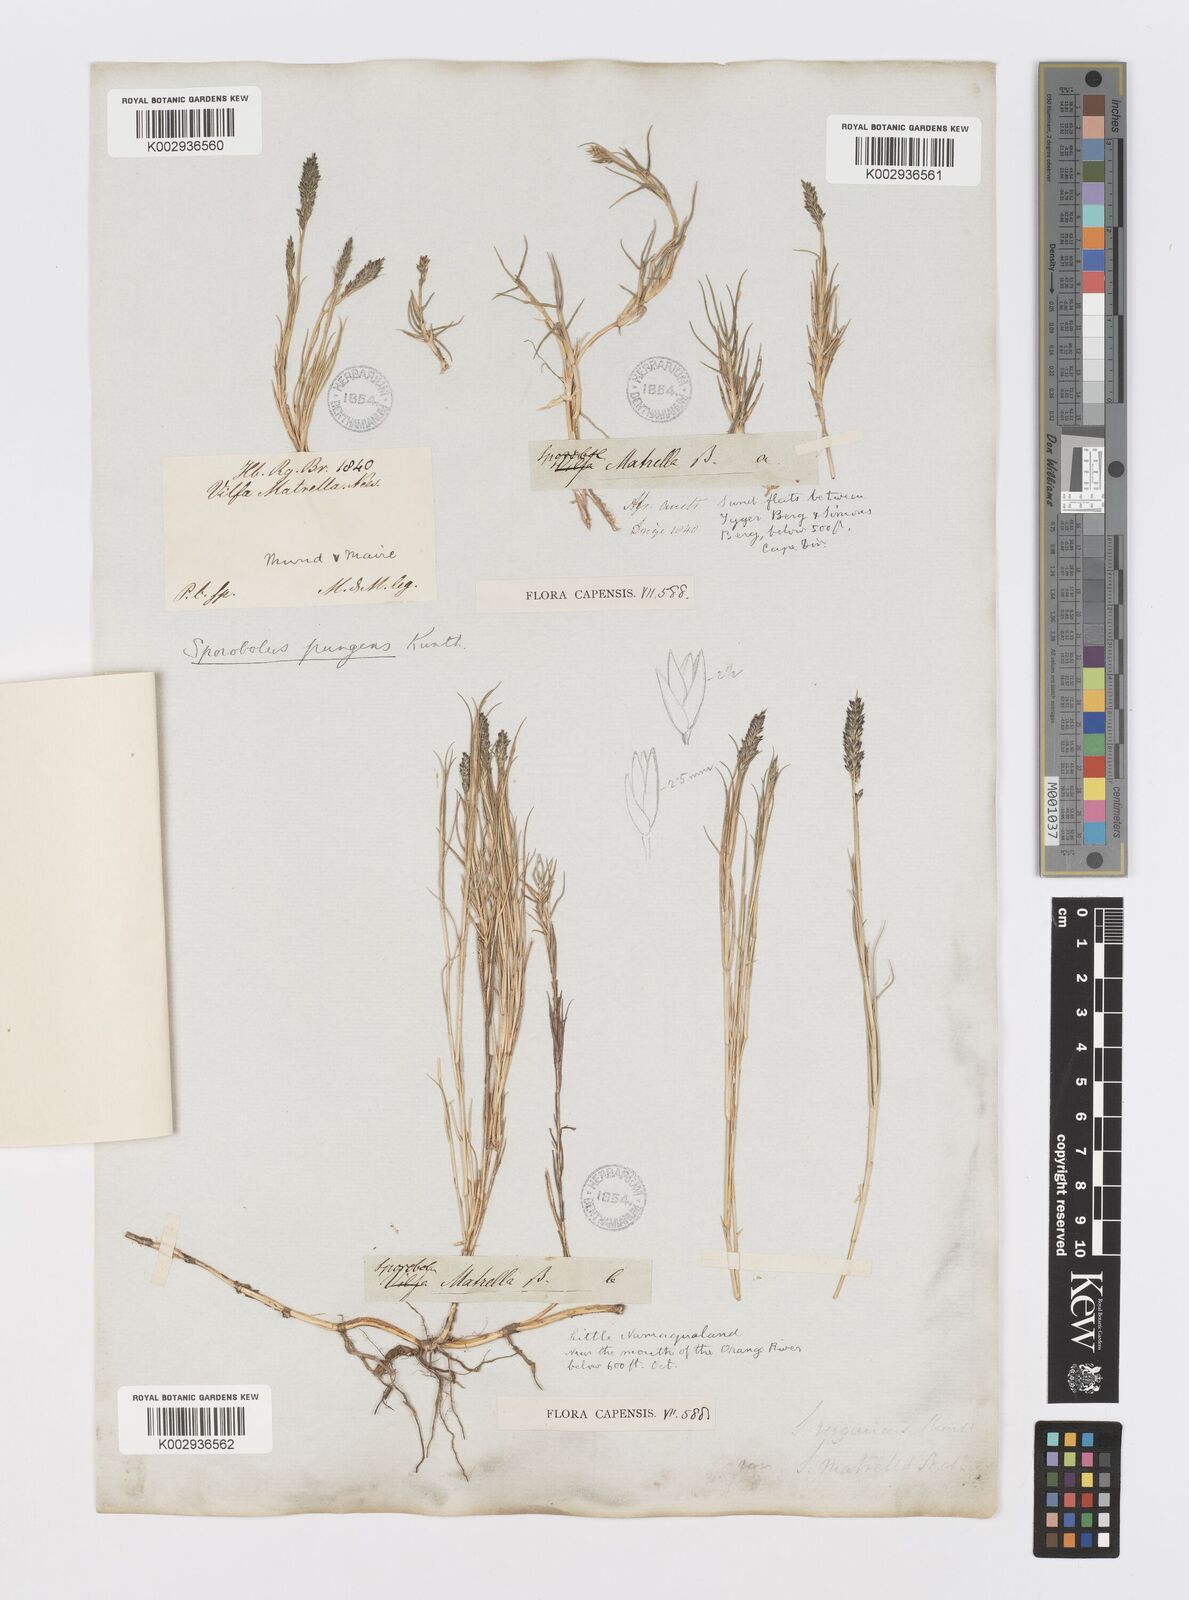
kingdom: Plantae
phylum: Tracheophyta
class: Liliopsida
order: Poales
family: Poaceae
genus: Sporobolus
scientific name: Sporobolus virginicus
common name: Beach dropseed
